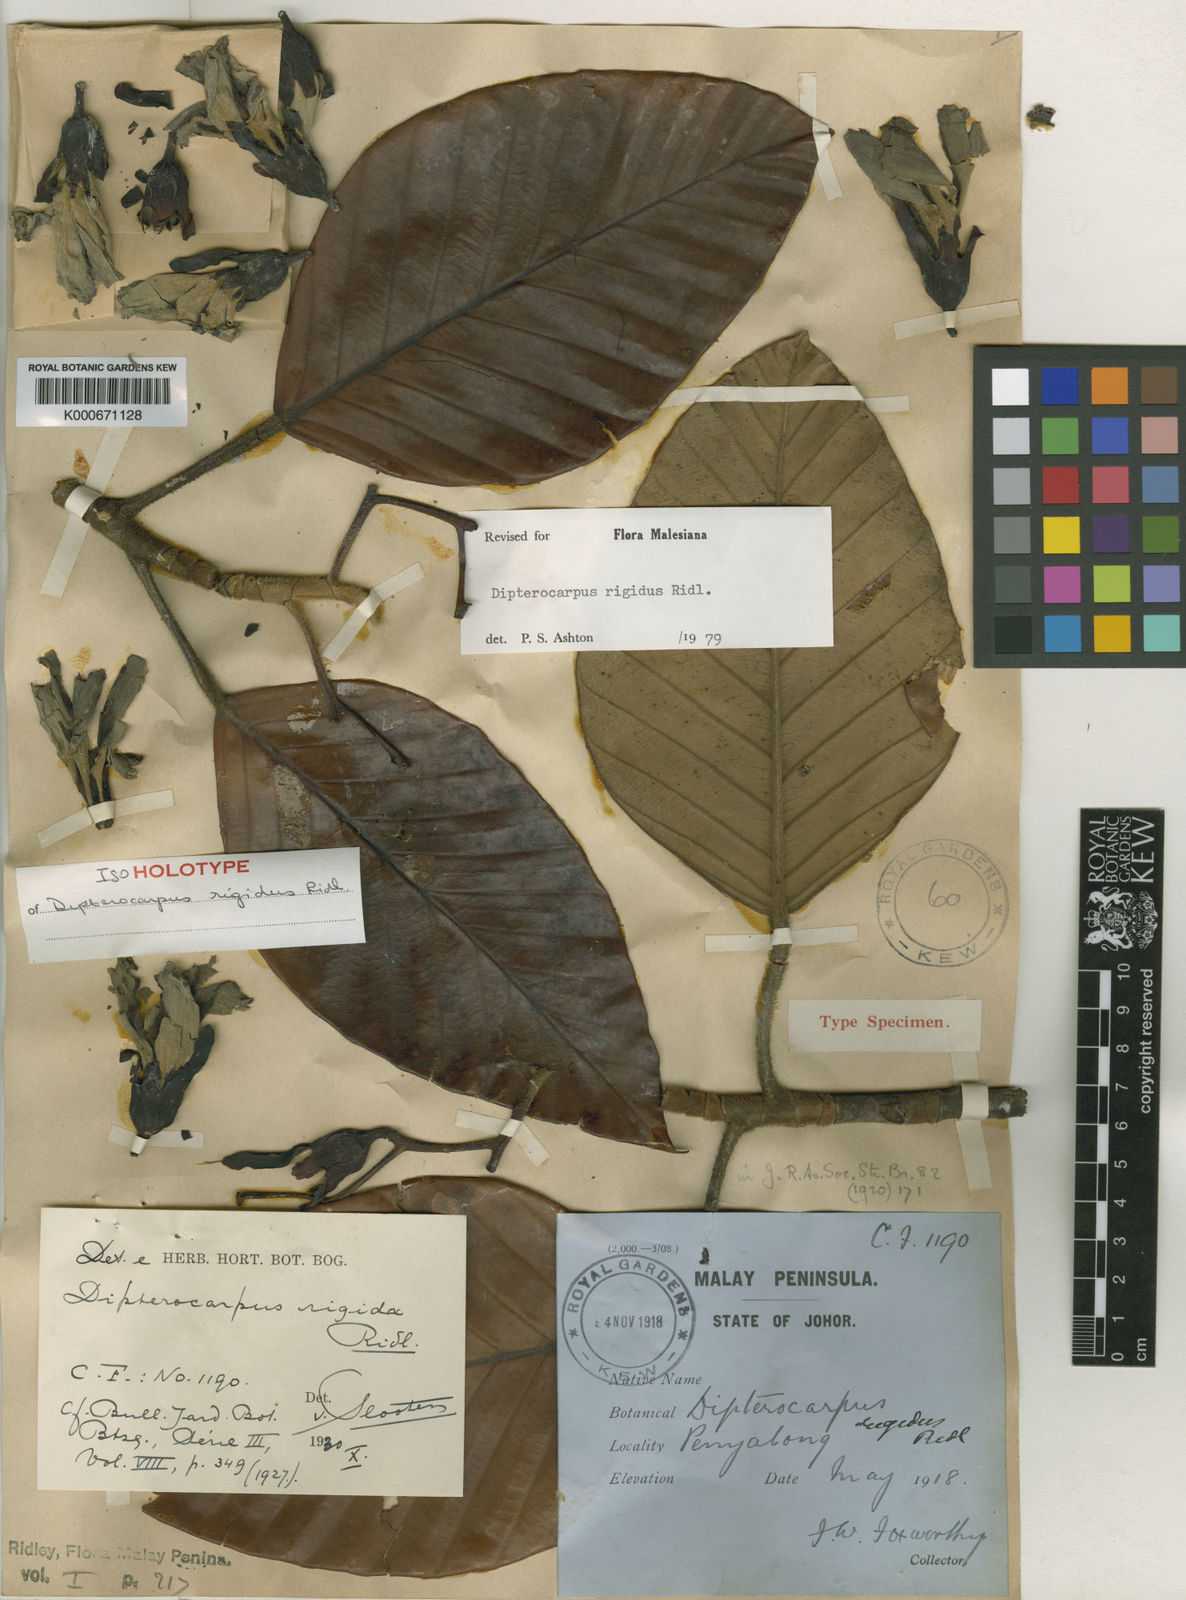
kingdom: Plantae
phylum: Tracheophyta
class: Magnoliopsida
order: Malvales
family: Dipterocarpaceae
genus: Dipterocarpus
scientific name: Dipterocarpus rigidus
